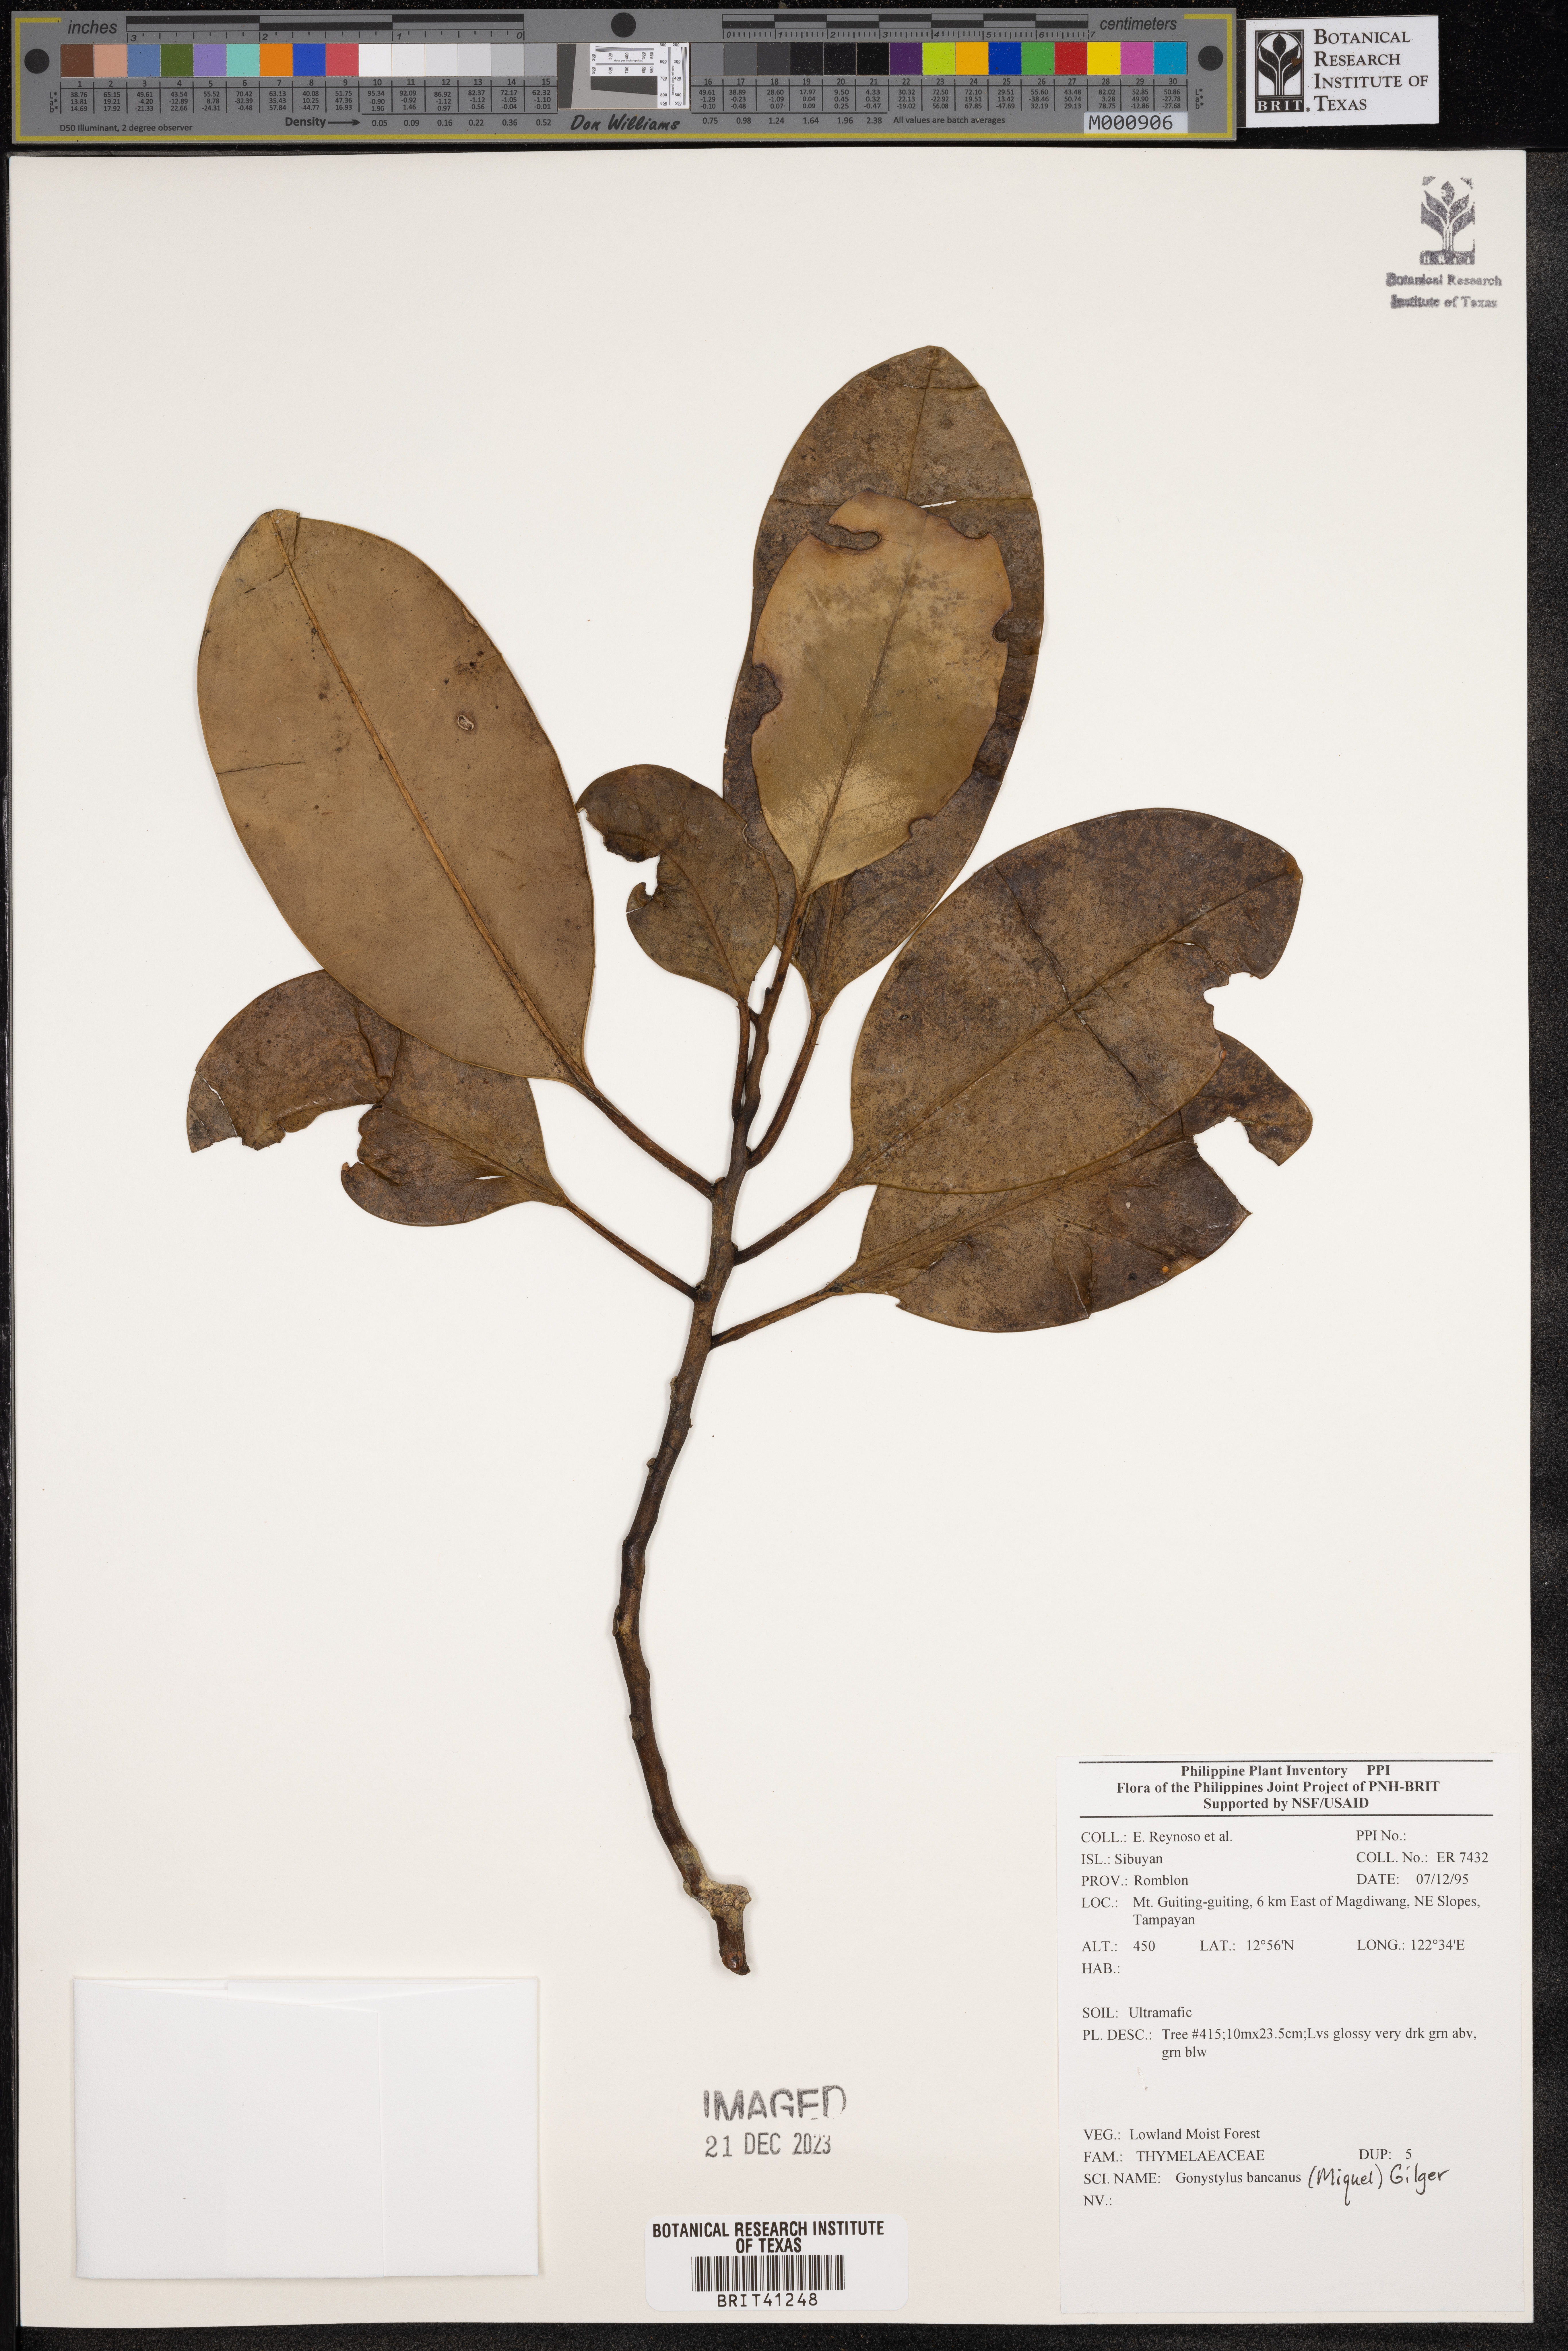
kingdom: Plantae
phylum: Tracheophyta
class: Magnoliopsida
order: Malvales
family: Thymelaeaceae
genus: Gonystylus
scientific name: Gonystylus bancanus
